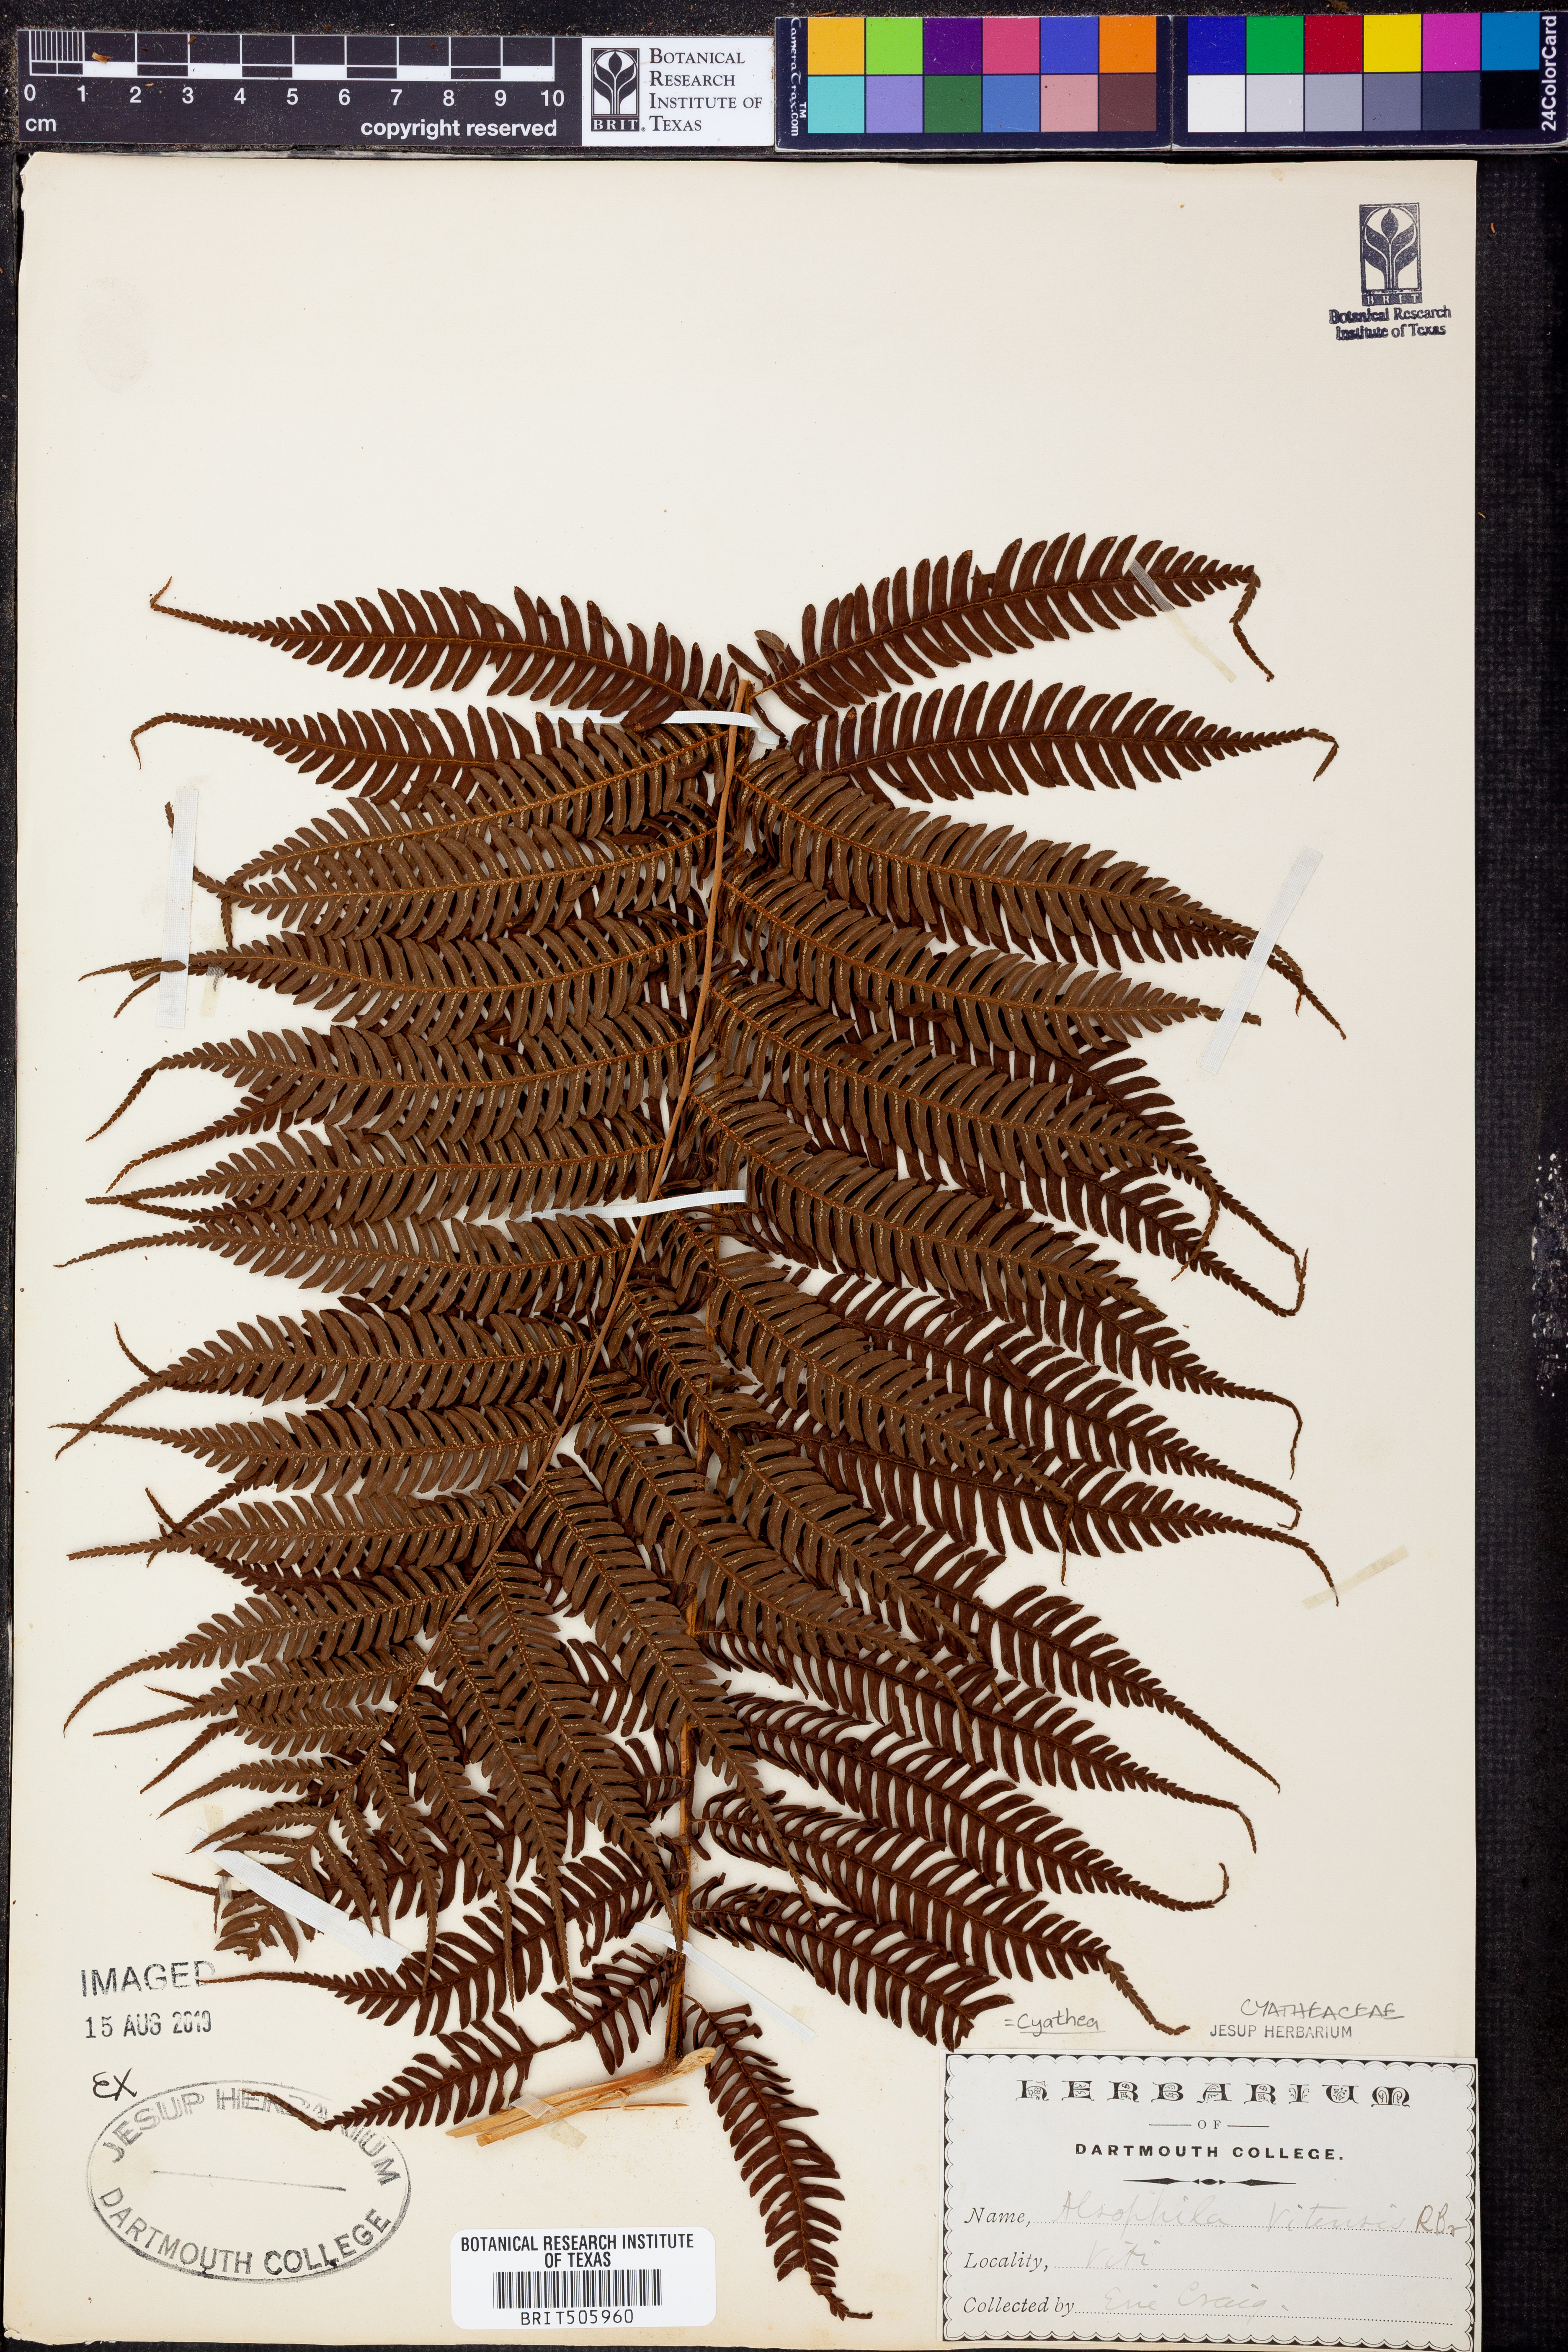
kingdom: Plantae
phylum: Tracheophyta
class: Polypodiopsida
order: Cyatheales
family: Cyatheaceae
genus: Sphaeropteris
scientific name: Sphaeropteris lunulata
